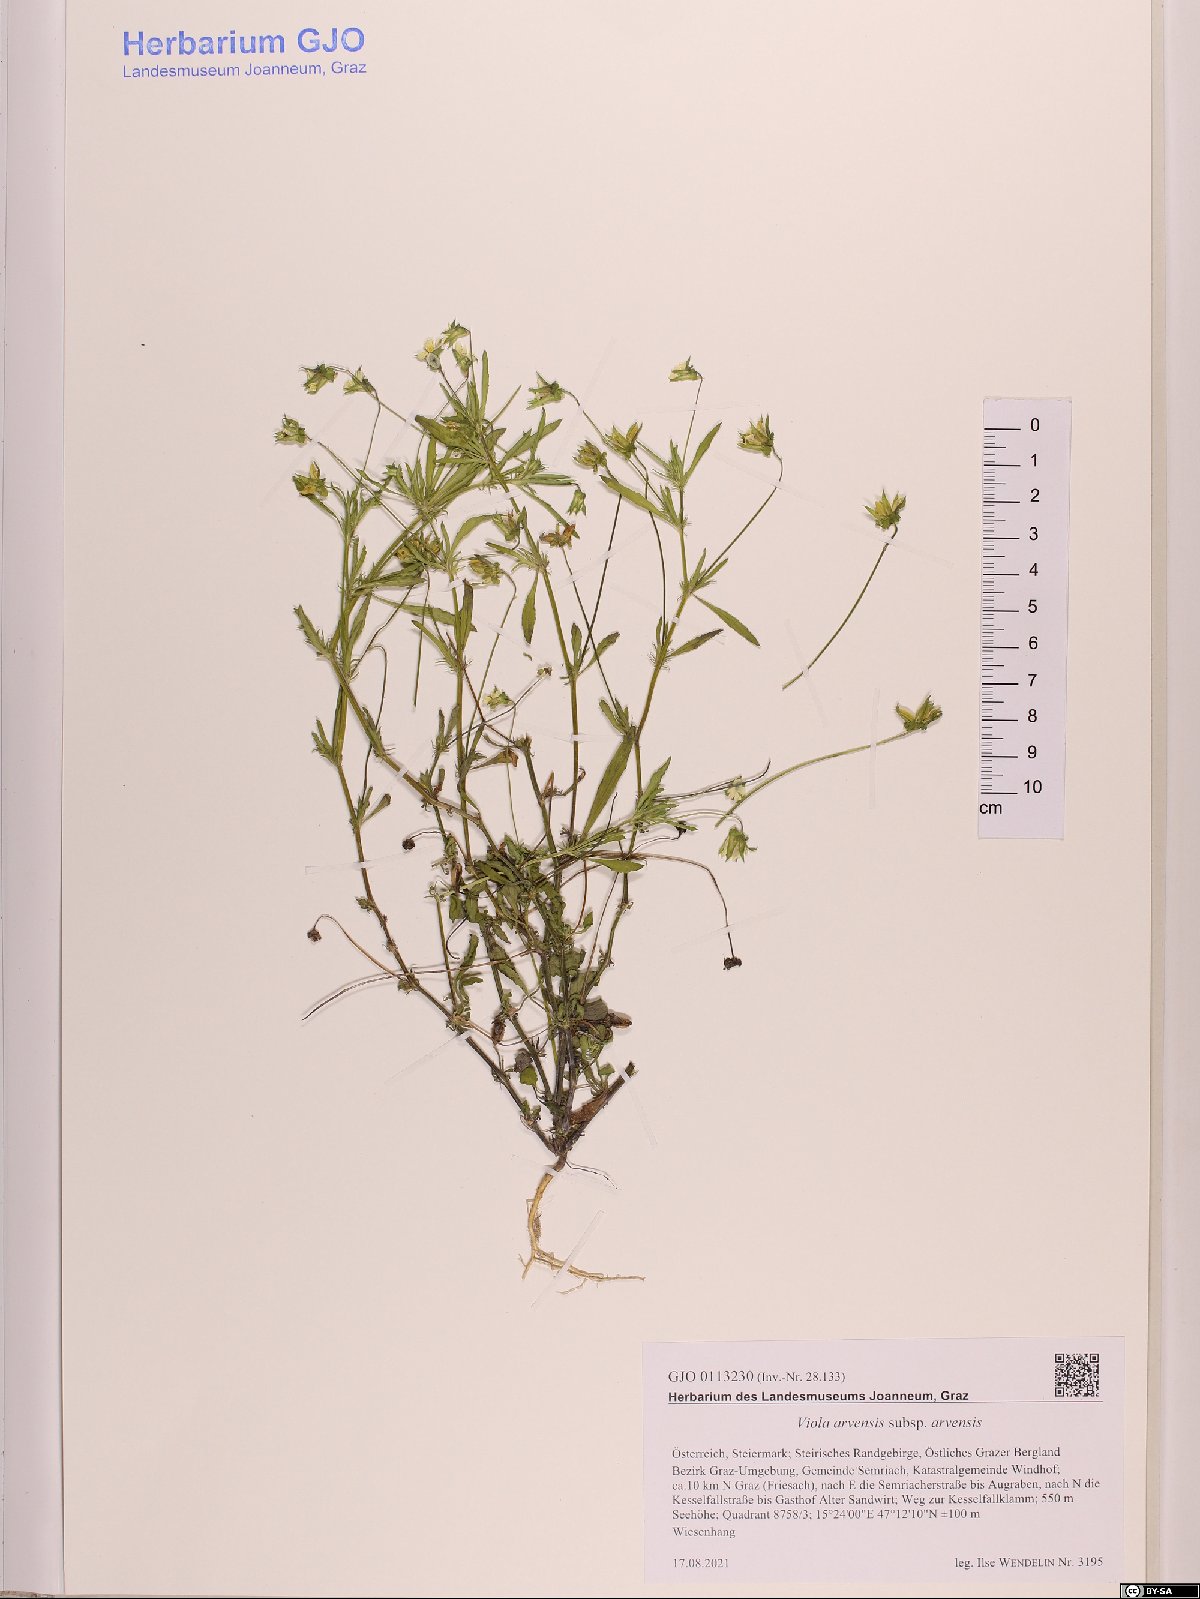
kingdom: Plantae
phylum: Tracheophyta
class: Magnoliopsida
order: Malpighiales
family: Violaceae
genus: Viola
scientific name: Viola arvensis
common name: Field pansy
